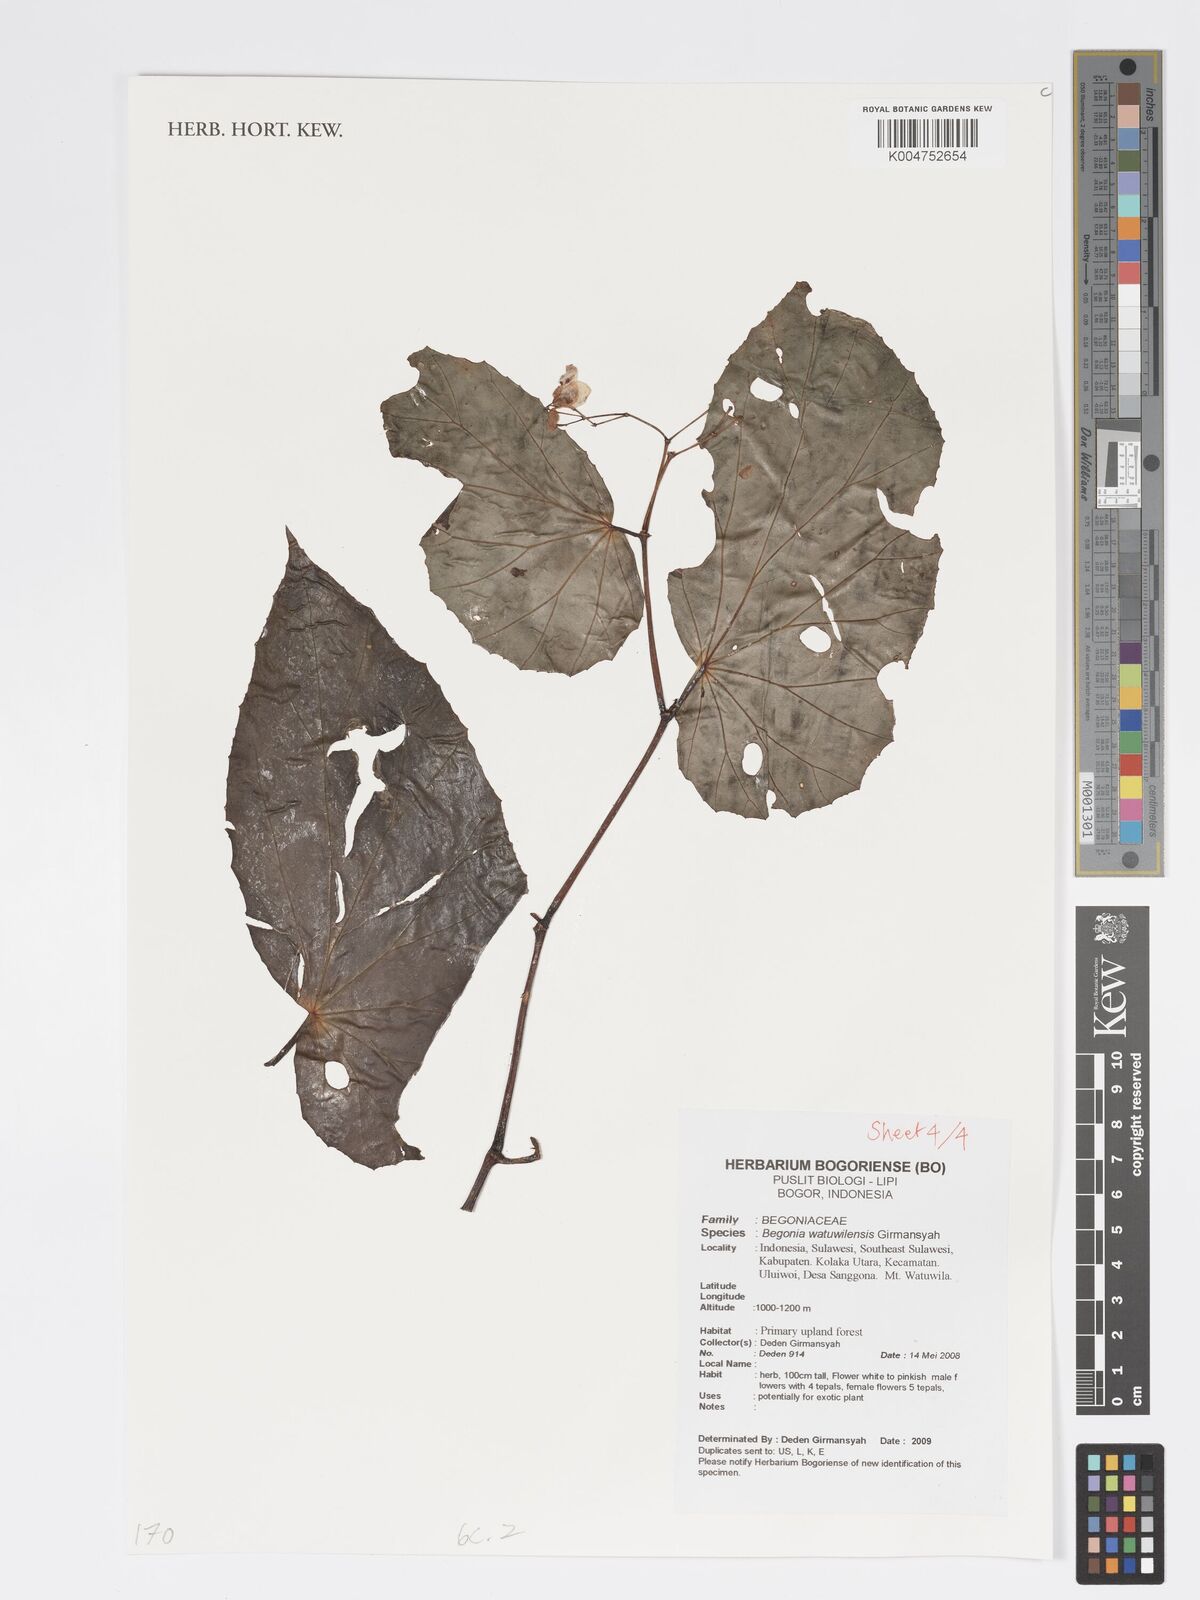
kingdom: Plantae
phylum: Tracheophyta
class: Magnoliopsida
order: Cucurbitales
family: Begoniaceae
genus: Begonia
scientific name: Begonia watuwilensis
